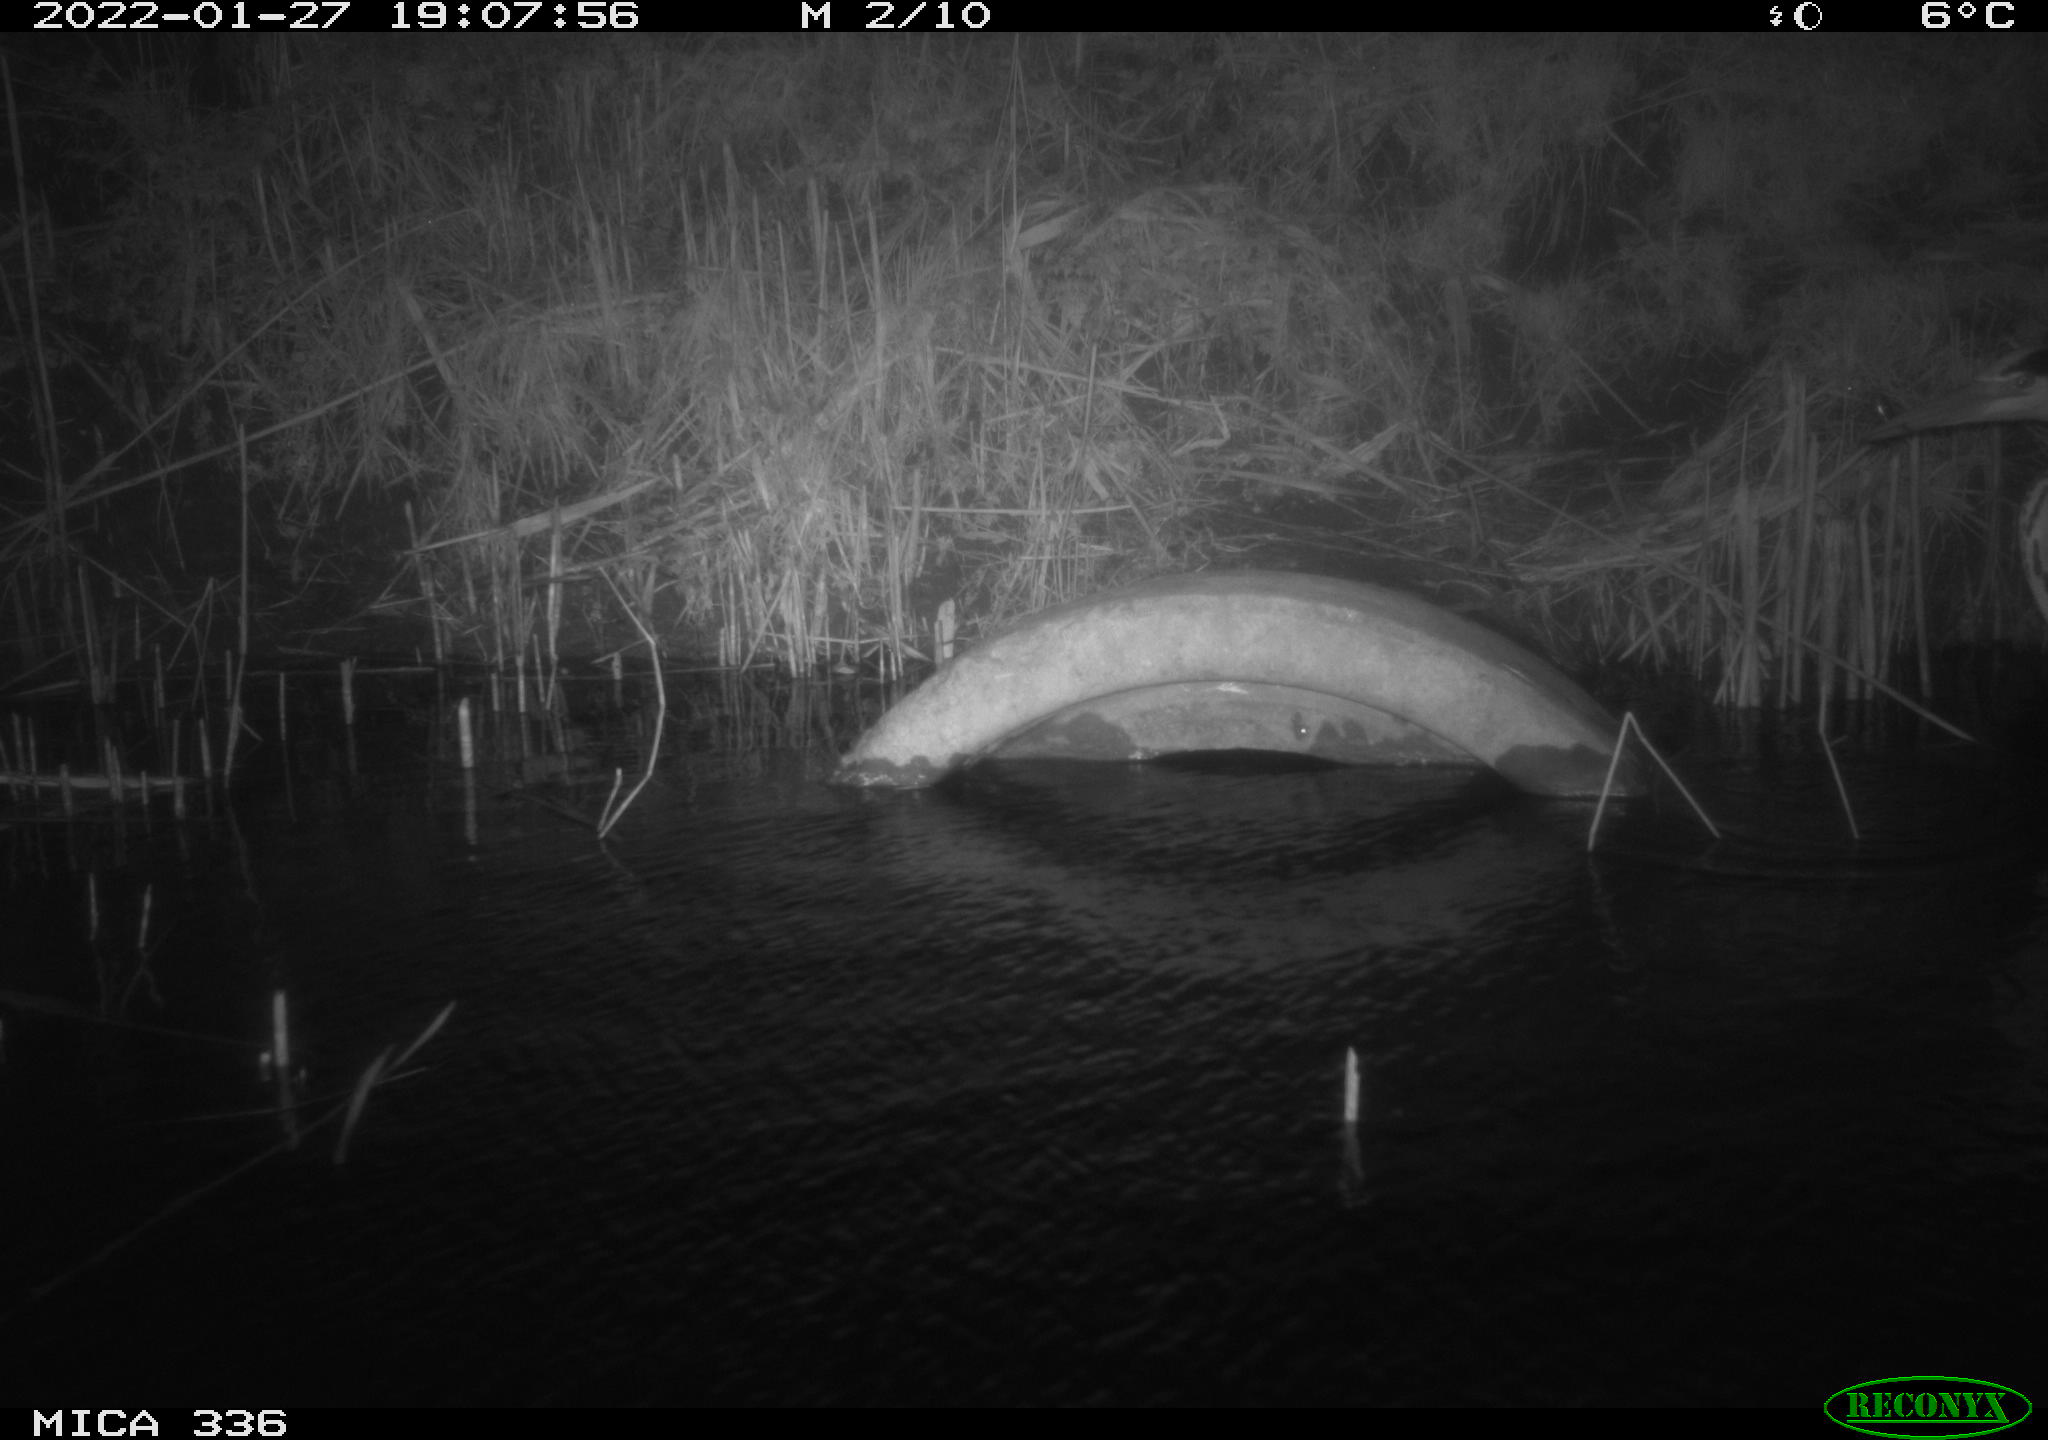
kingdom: Animalia
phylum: Chordata
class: Aves
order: Pelecaniformes
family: Ardeidae
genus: Ardea
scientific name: Ardea cinerea
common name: Grey heron
